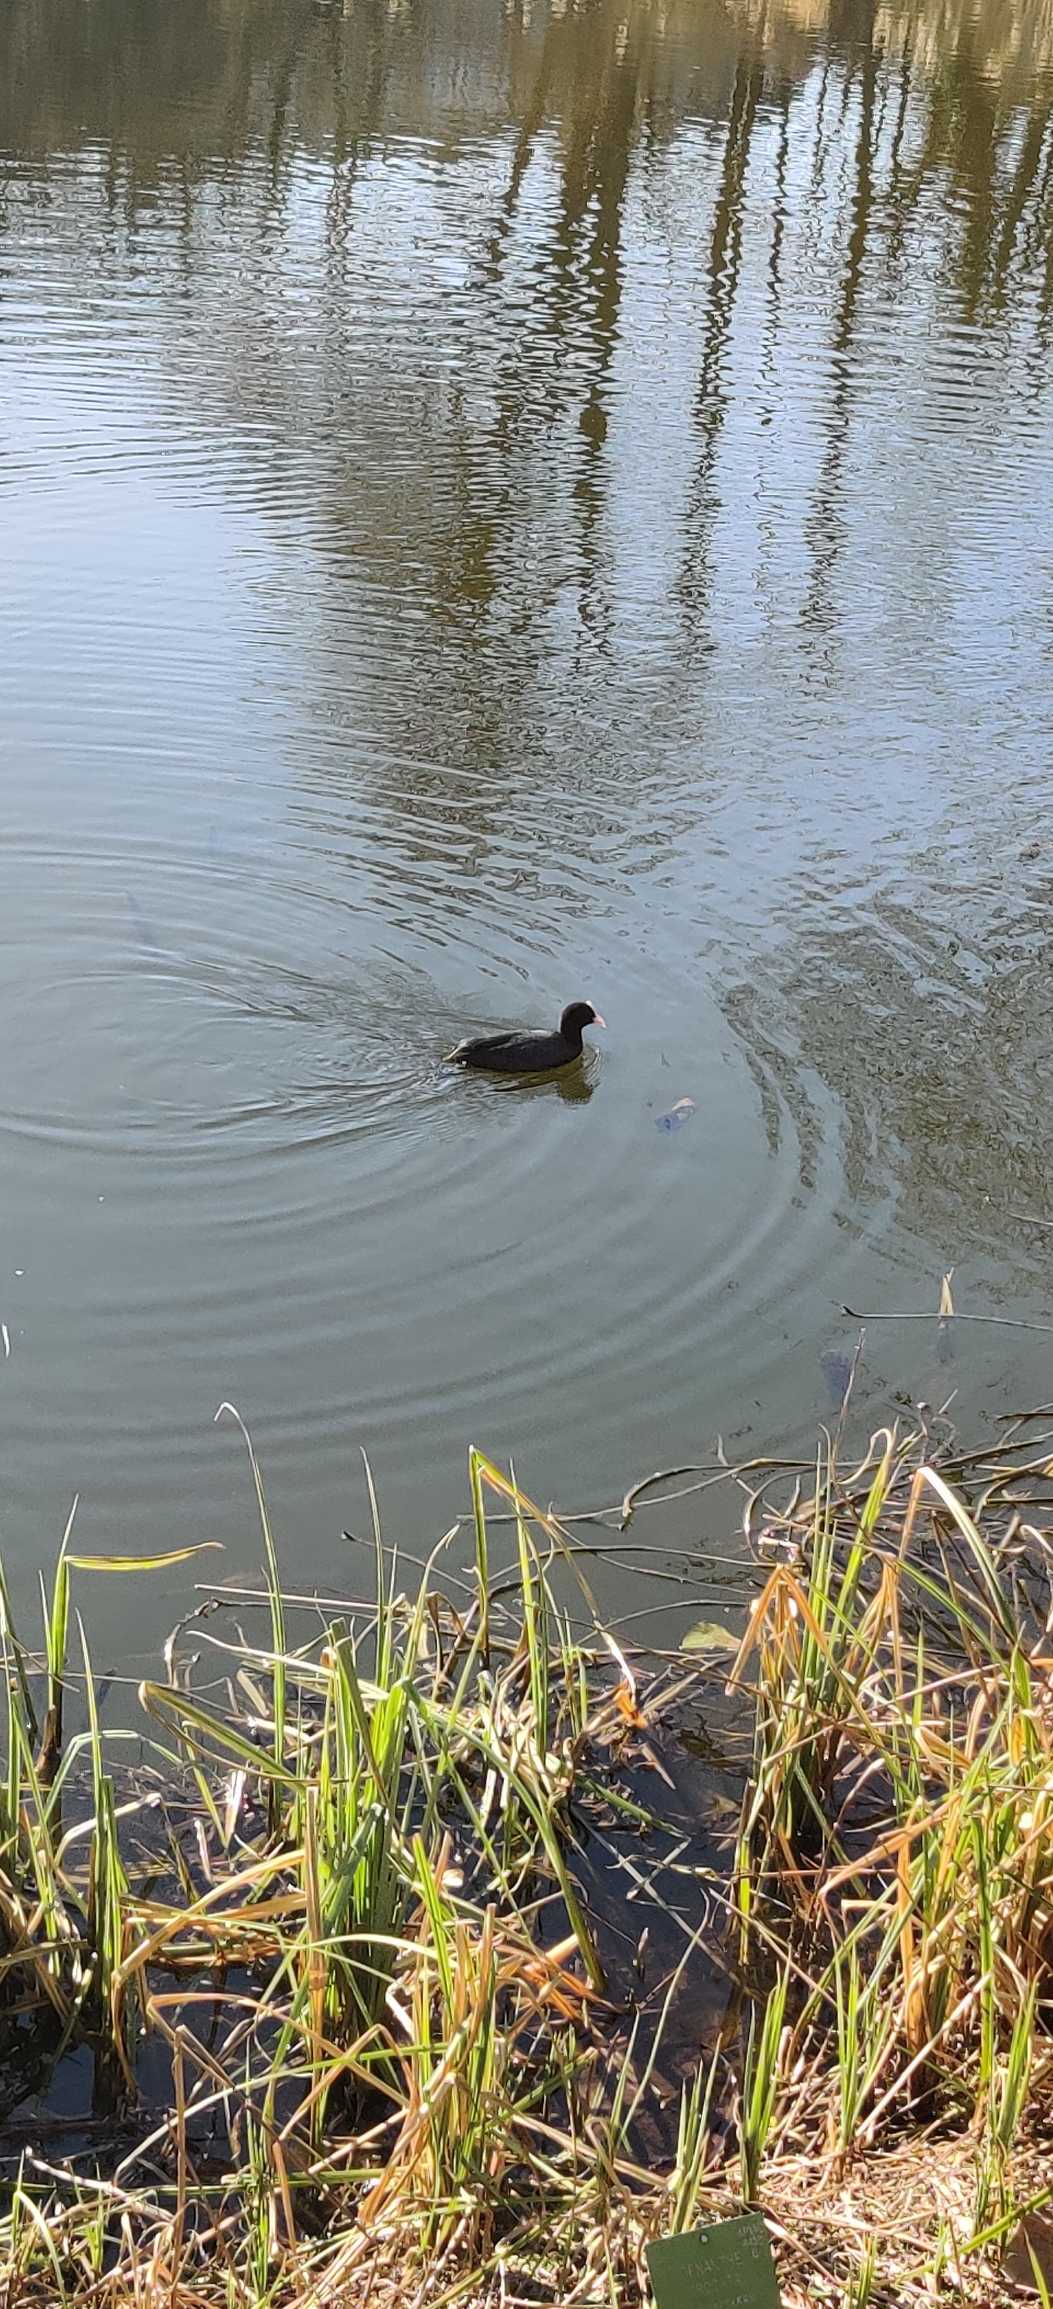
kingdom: Animalia
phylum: Chordata
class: Aves
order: Gruiformes
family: Rallidae
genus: Fulica
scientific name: Fulica atra
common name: Blishøne
